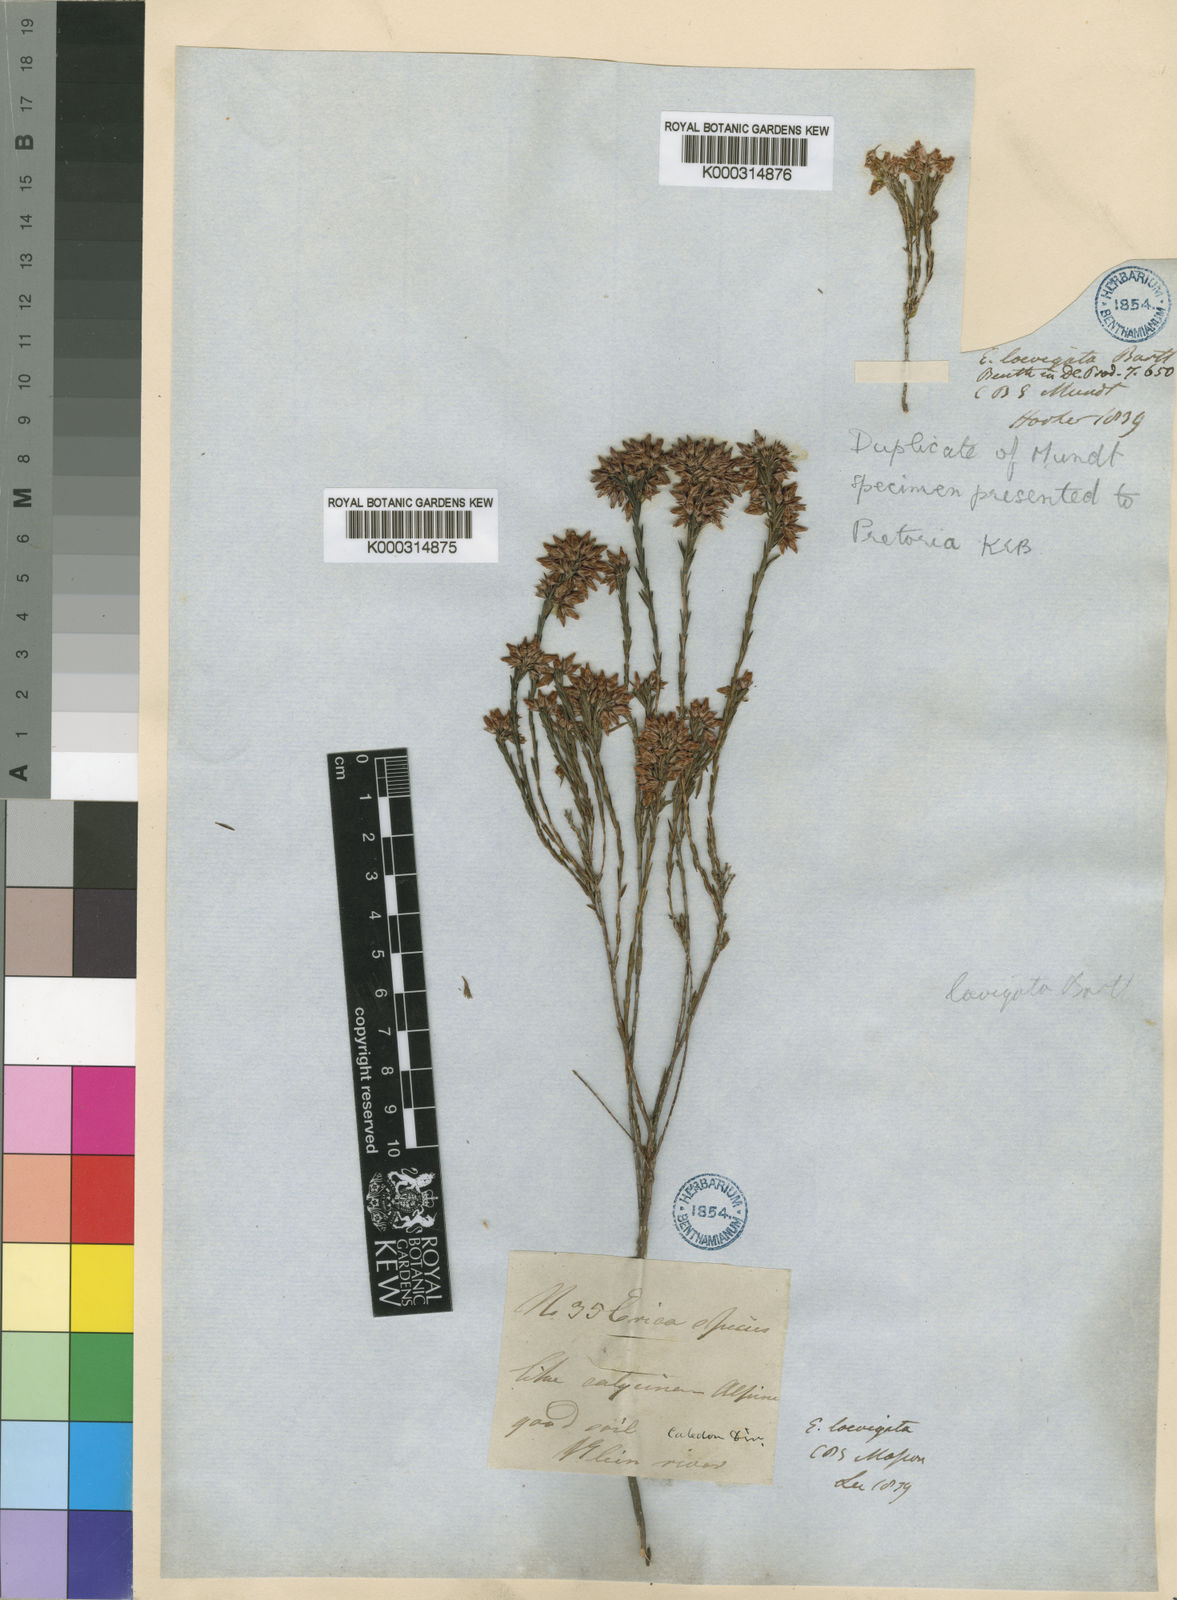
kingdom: Plantae
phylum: Tracheophyta
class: Magnoliopsida
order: Ericales
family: Ericaceae
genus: Erica
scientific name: Erica laevigata
